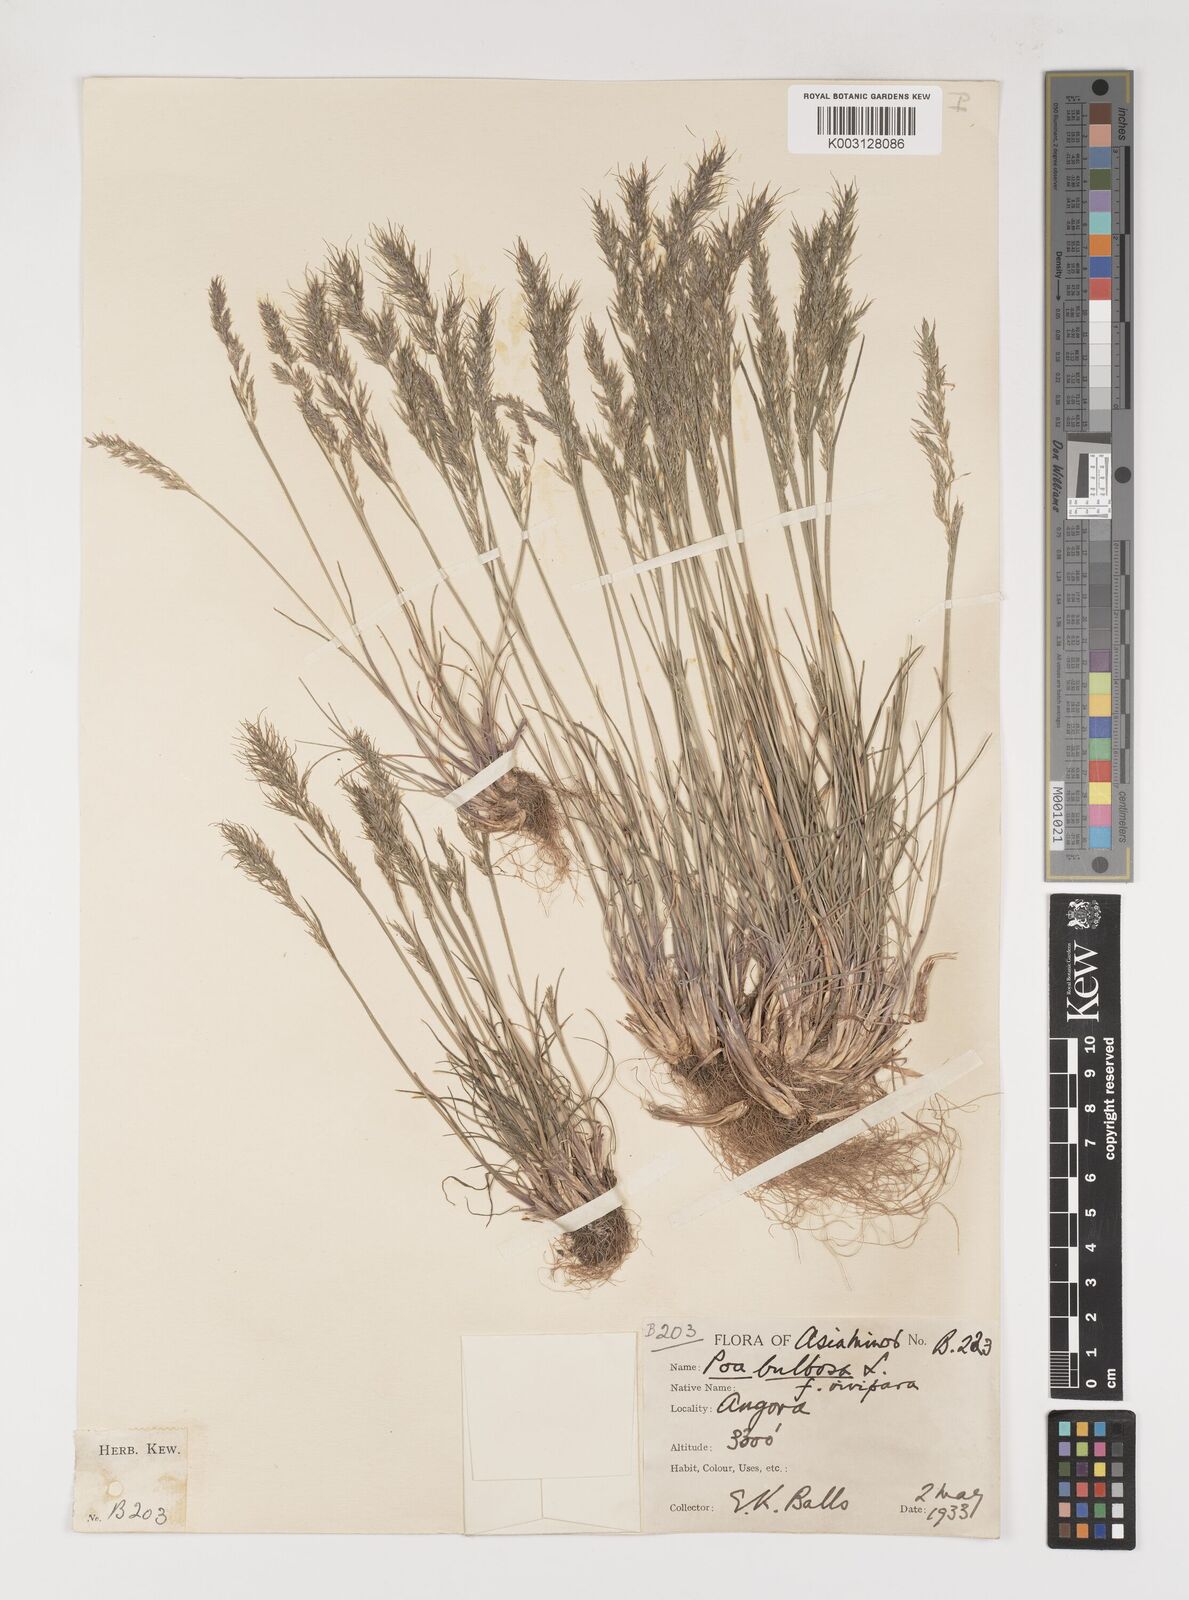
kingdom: Plantae
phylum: Tracheophyta
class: Liliopsida
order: Poales
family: Poaceae
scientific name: Poaceae
